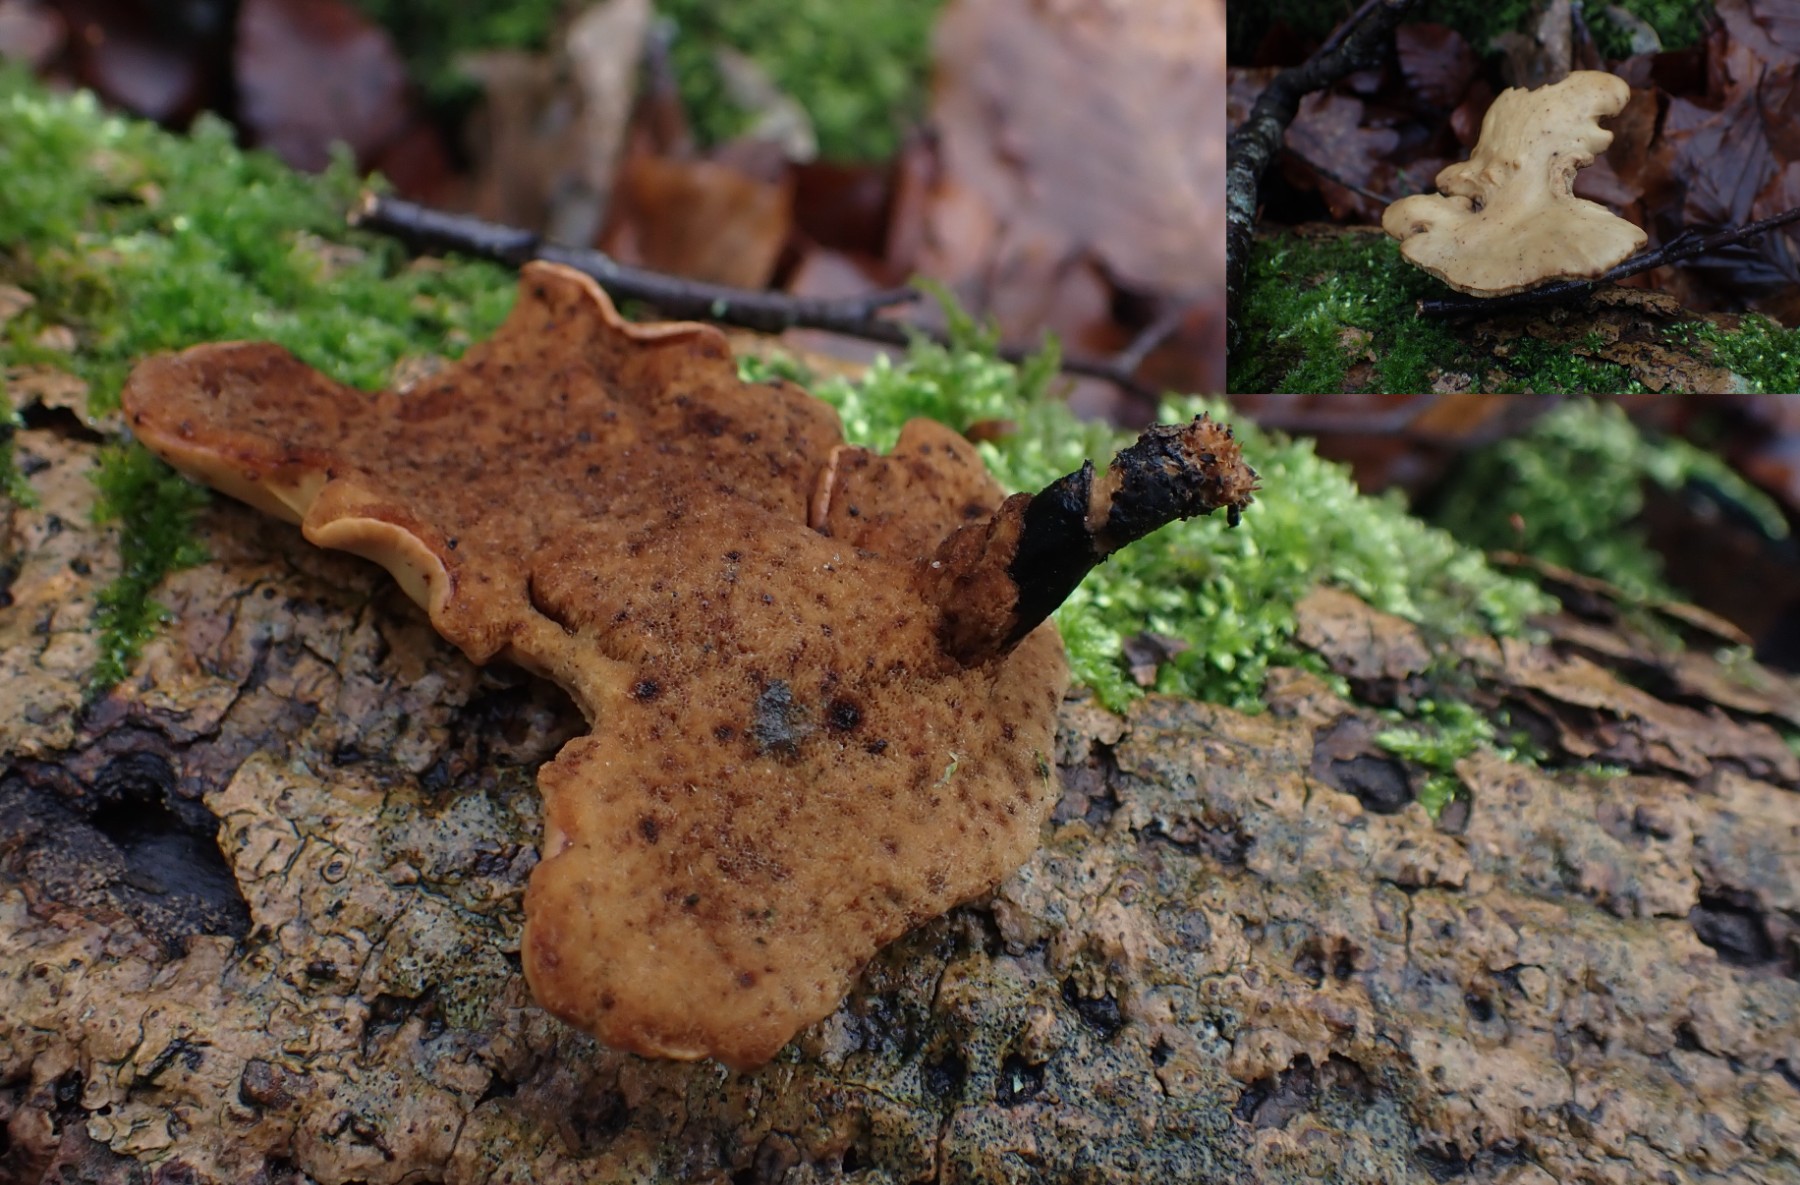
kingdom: Fungi
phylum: Basidiomycota
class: Agaricomycetes
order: Polyporales
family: Polyporaceae
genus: Cerioporus
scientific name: Cerioporus varius
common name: foranderlig stilkporesvamp
